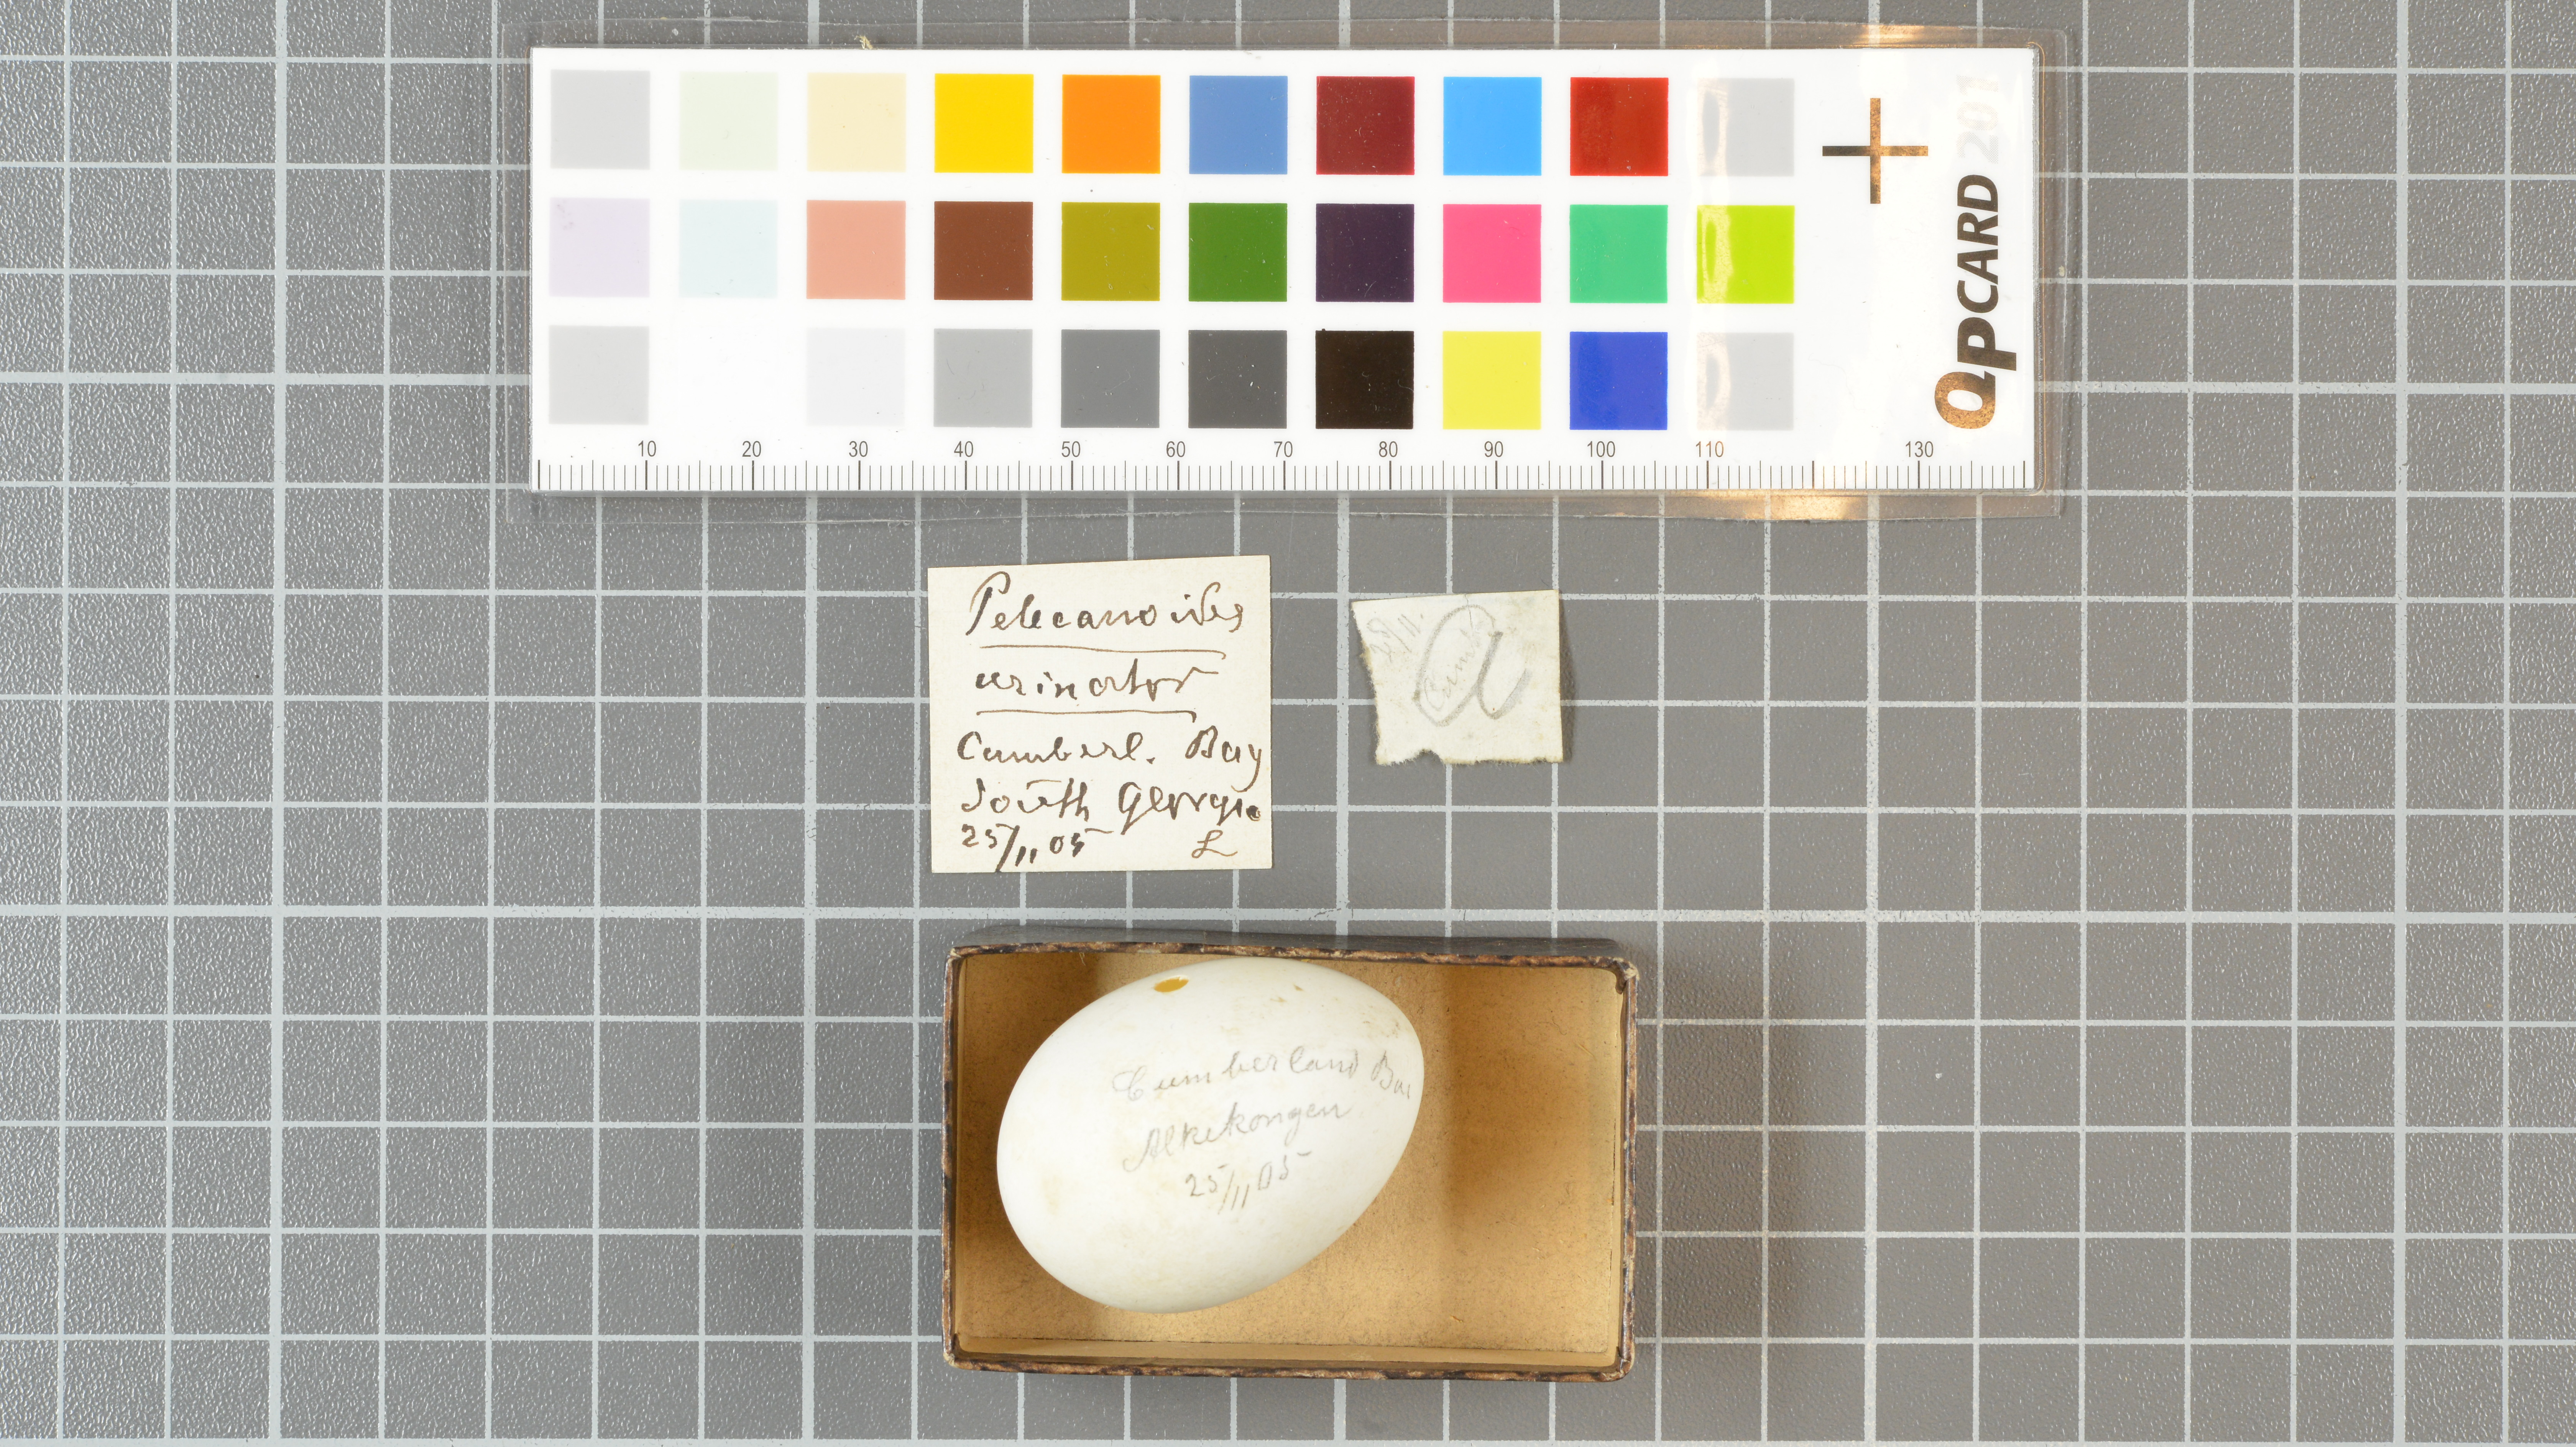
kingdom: Animalia
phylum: Chordata
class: Aves
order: Procellariiformes
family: Pelecanoididae
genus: Pelecanoides
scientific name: Pelecanoides urinatrix
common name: Common diving-petrel
